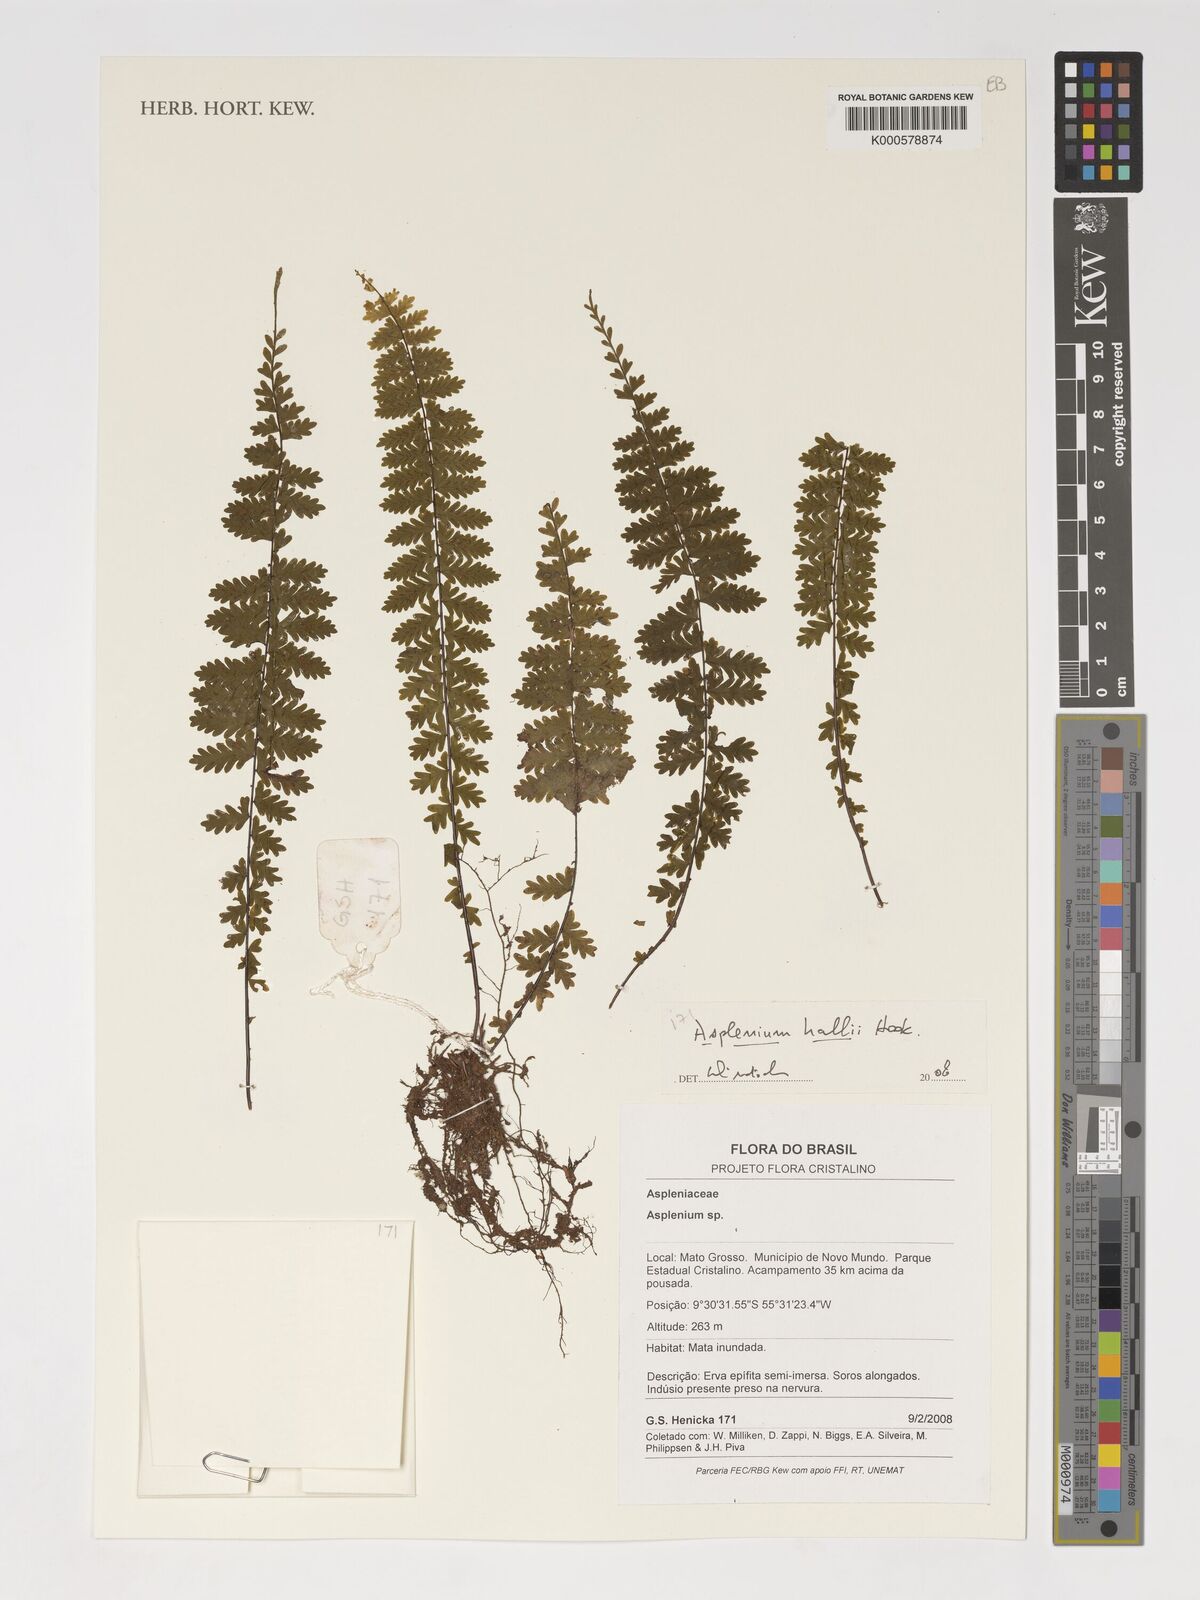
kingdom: Plantae
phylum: Tracheophyta
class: Polypodiopsida
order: Polypodiales
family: Aspleniaceae
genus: Asplenium
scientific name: Asplenium hallii
